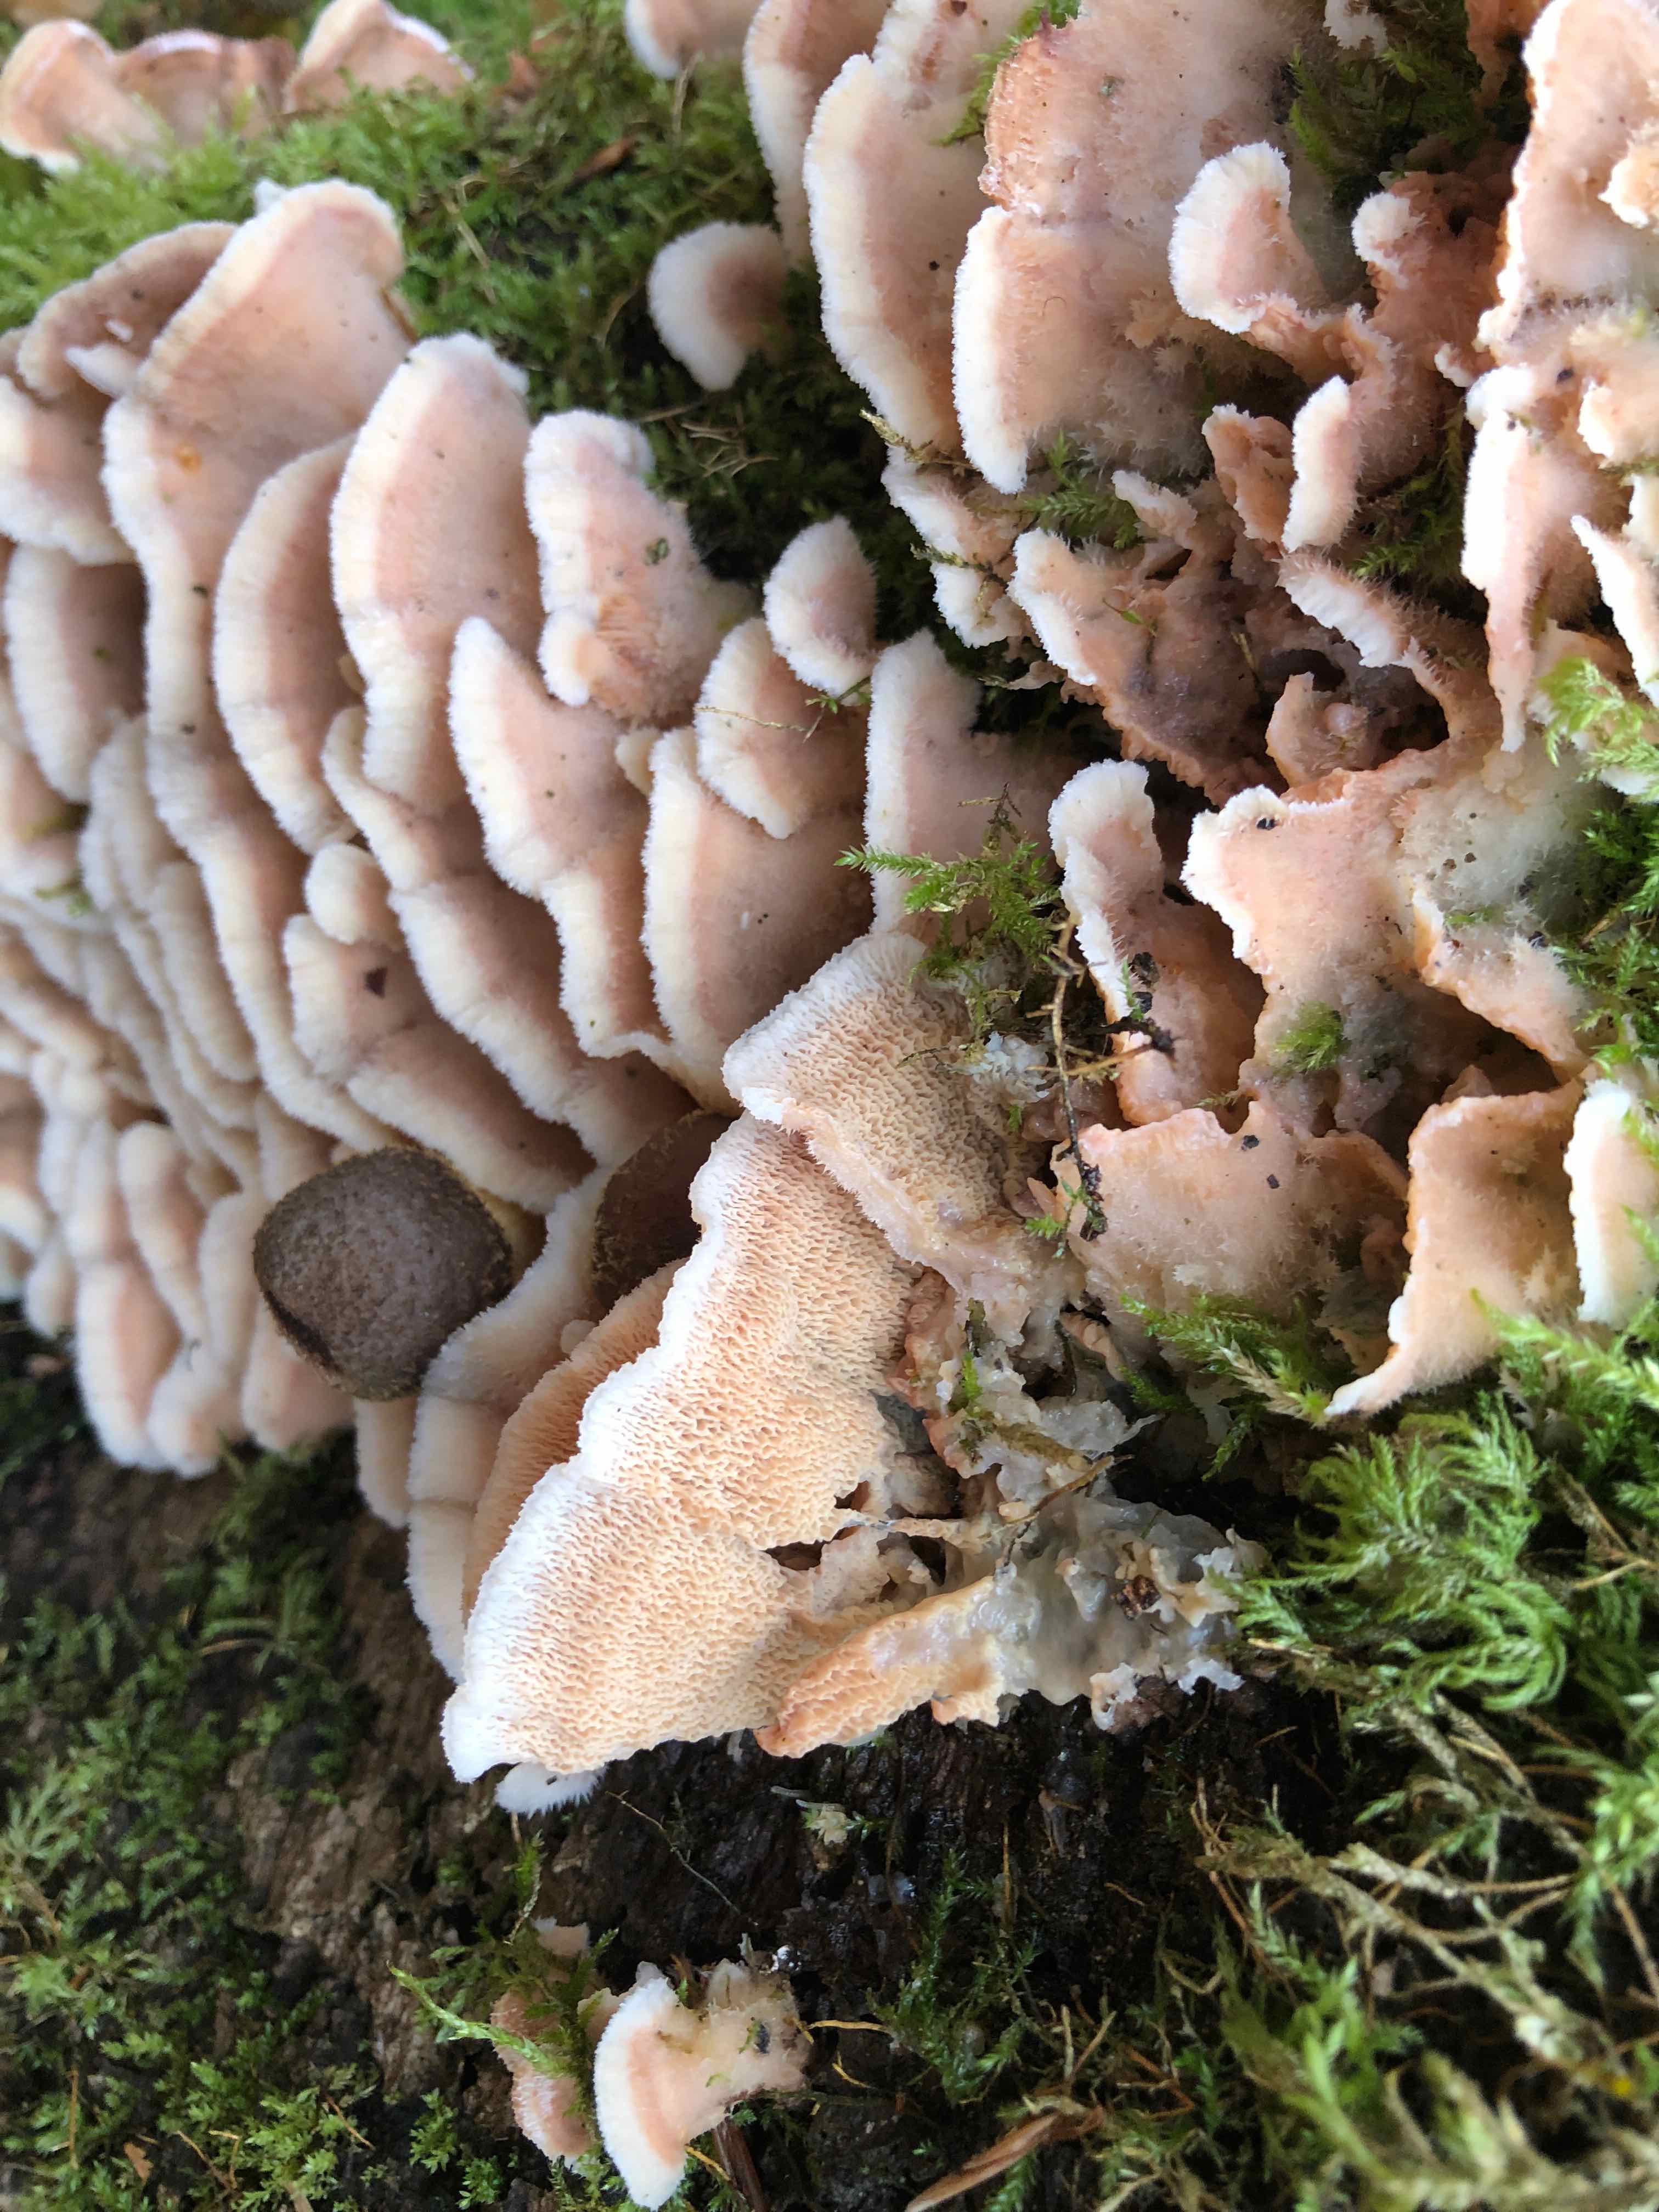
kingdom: Fungi
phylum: Basidiomycota
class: Agaricomycetes
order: Polyporales
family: Meruliaceae
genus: Phlebia
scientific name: Phlebia tremellosa
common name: bævrende åresvamp
